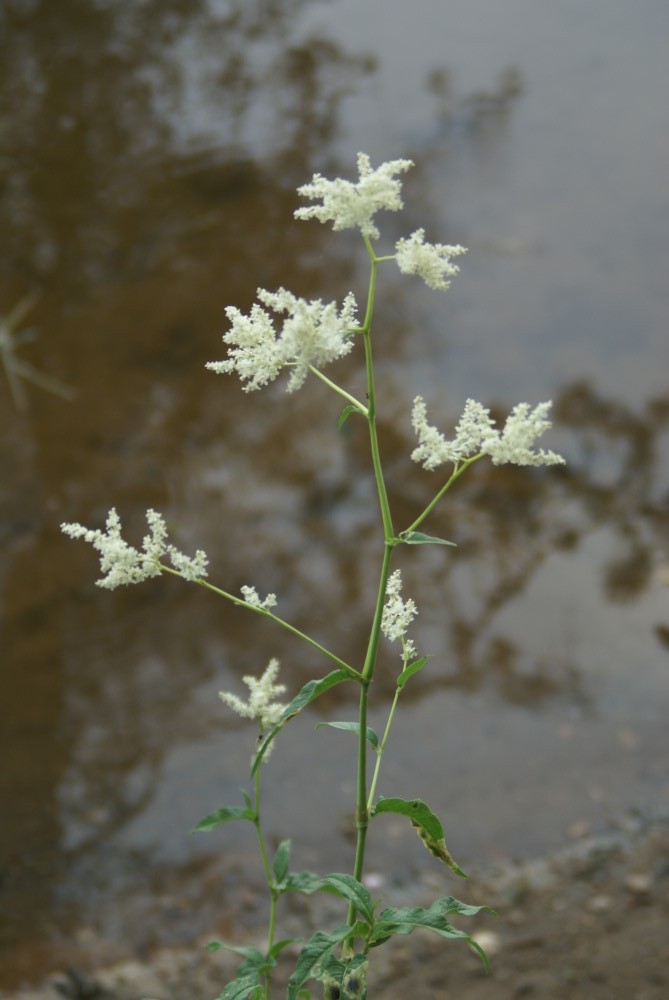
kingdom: Plantae
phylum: Tracheophyta
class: Magnoliopsida
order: Caryophyllales
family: Polygonaceae
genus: Koenigia
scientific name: Koenigia alpina
